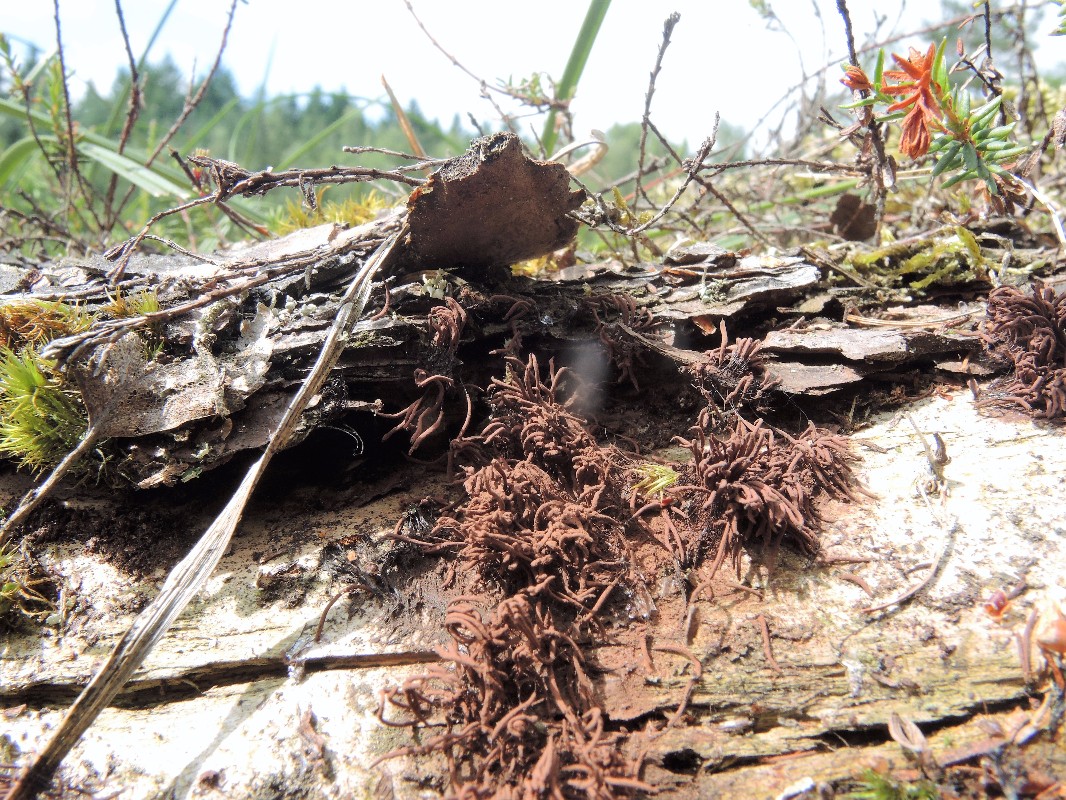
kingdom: Protozoa
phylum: Mycetozoa
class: Myxomycetes
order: Stemonitidales
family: Stemonitidaceae
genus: Stemonitis
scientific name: Stemonitis axifera
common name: rødbrun støvkølle
